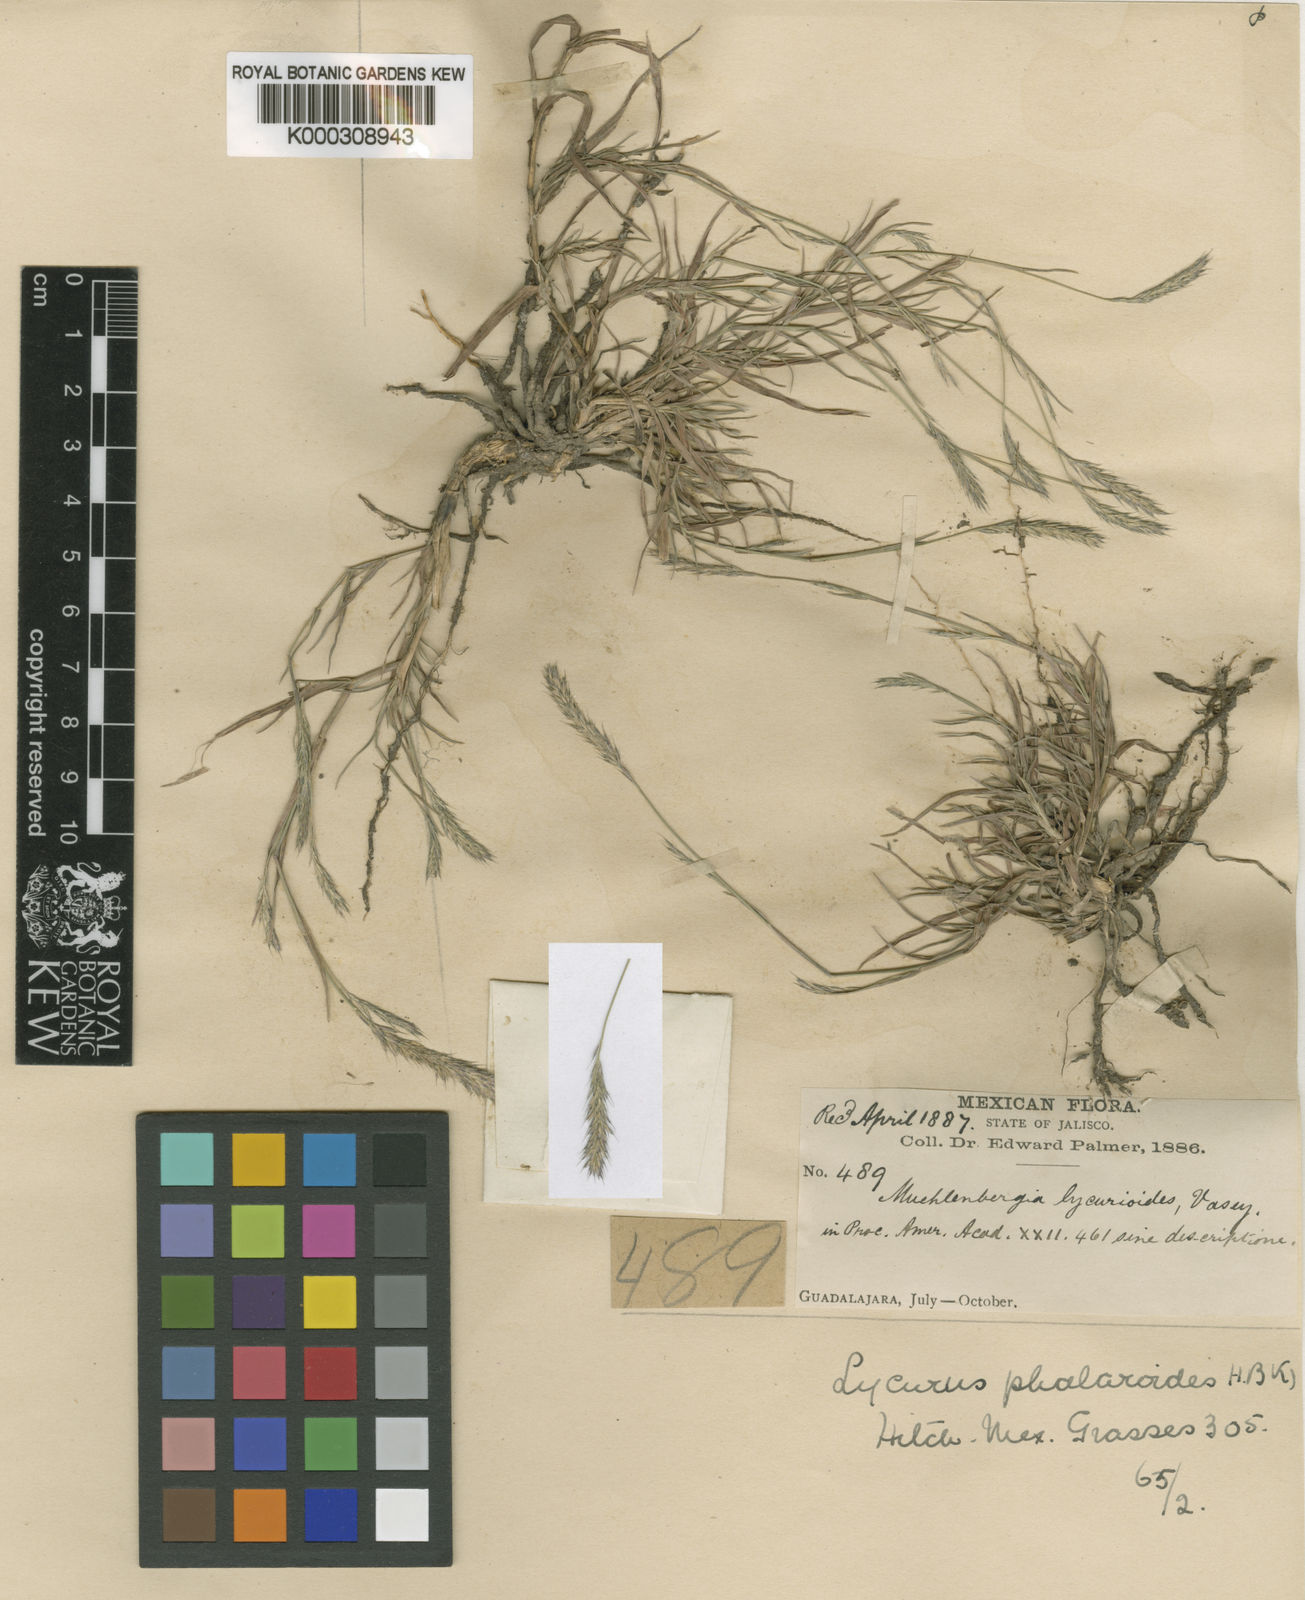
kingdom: Plantae
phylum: Tracheophyta
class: Liliopsida
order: Poales
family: Poaceae
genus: Muhlenbergia
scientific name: Muhlenbergia
